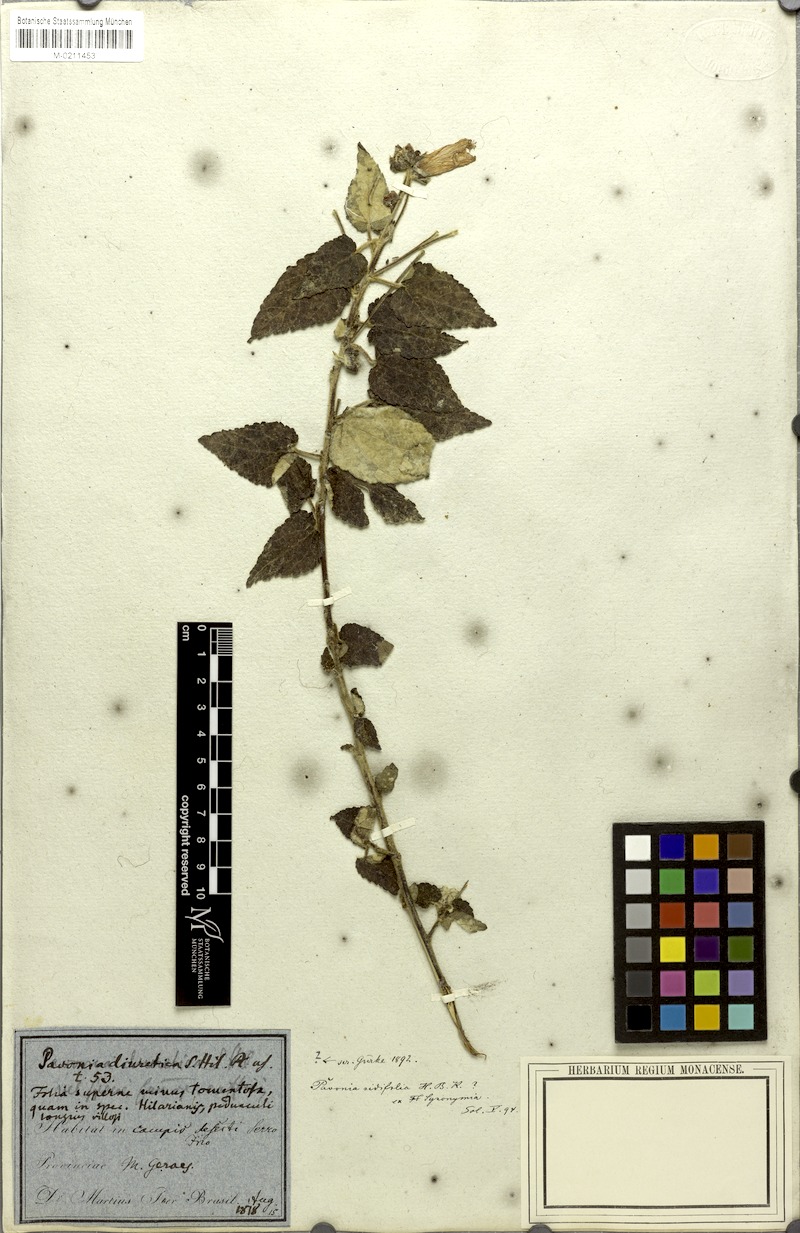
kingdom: Plantae
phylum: Tracheophyta
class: Magnoliopsida
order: Malvales
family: Malvaceae
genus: Pavonia
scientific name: Pavonia sidifolia
